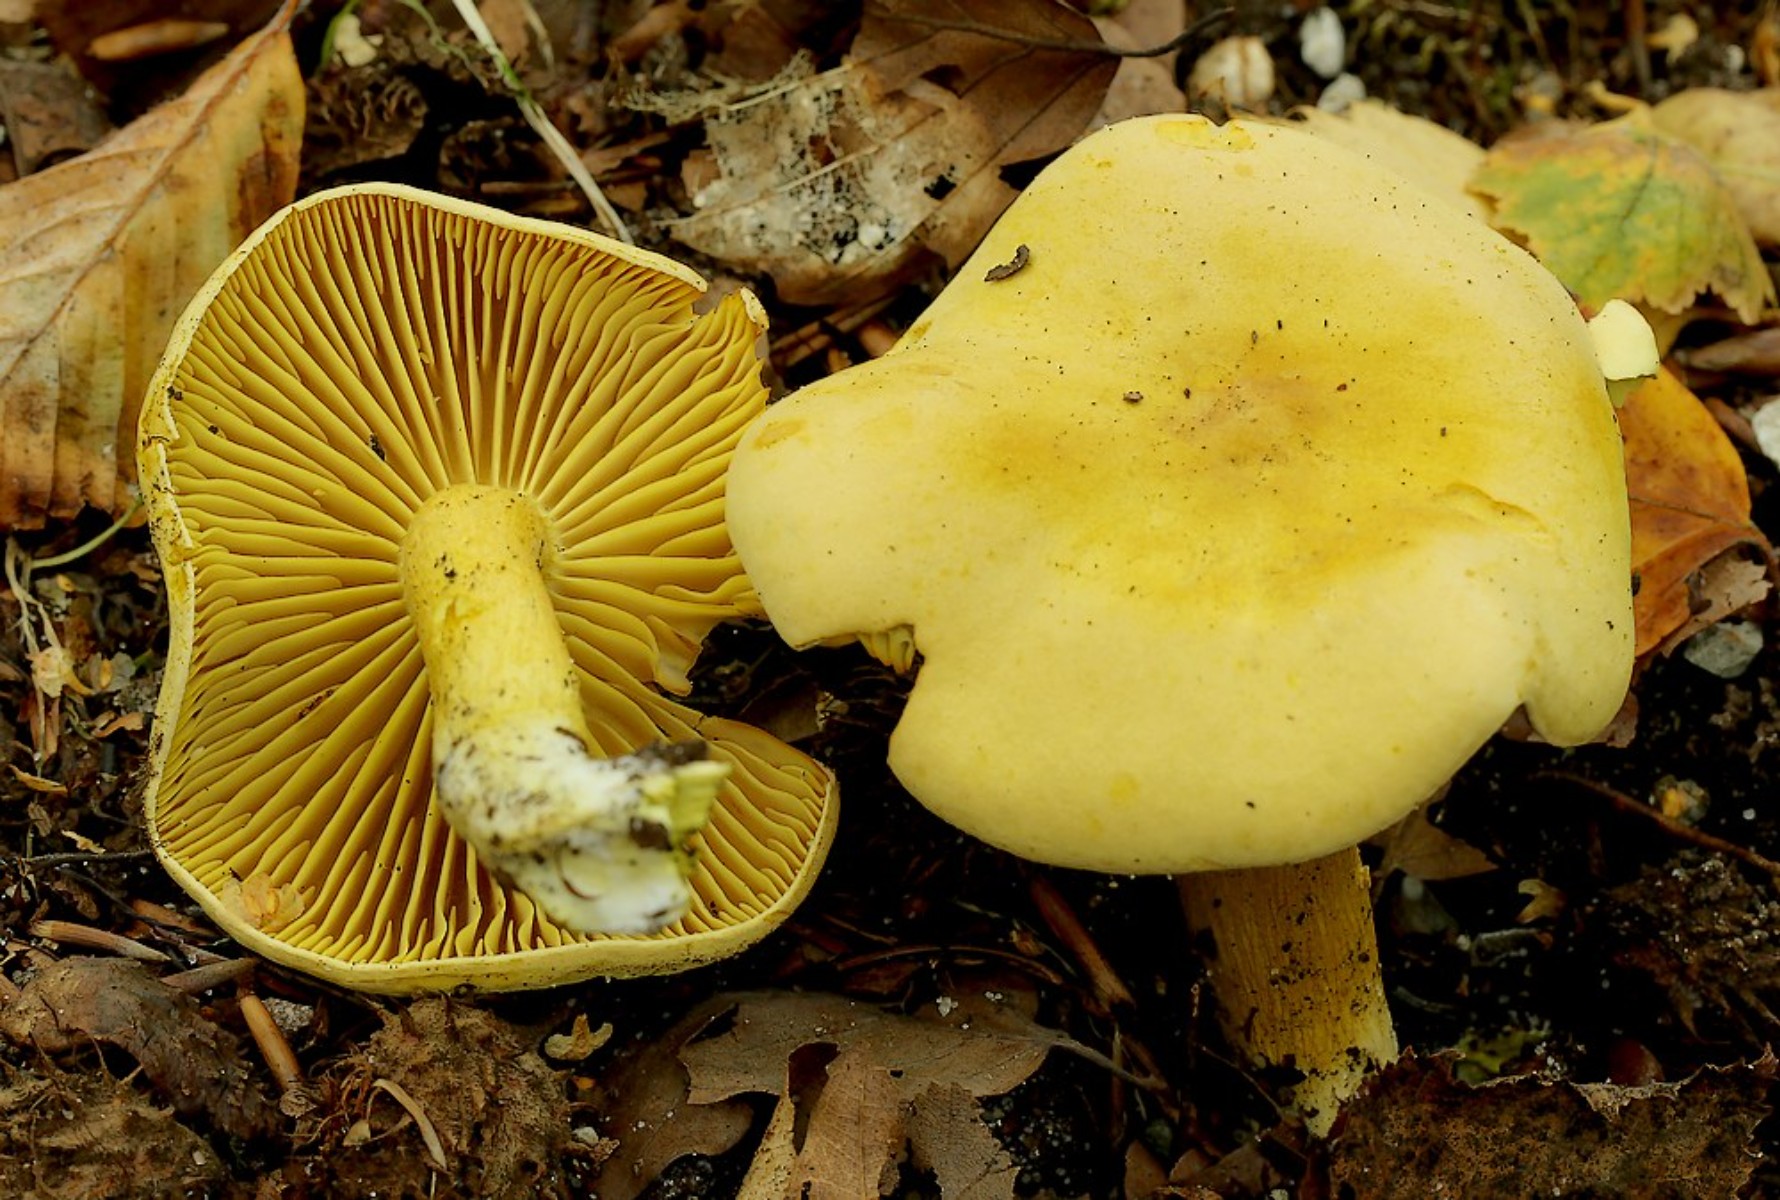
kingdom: Fungi
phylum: Basidiomycota
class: Agaricomycetes
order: Agaricales
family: Tricholomataceae
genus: Tricholoma
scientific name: Tricholoma sulphureum
